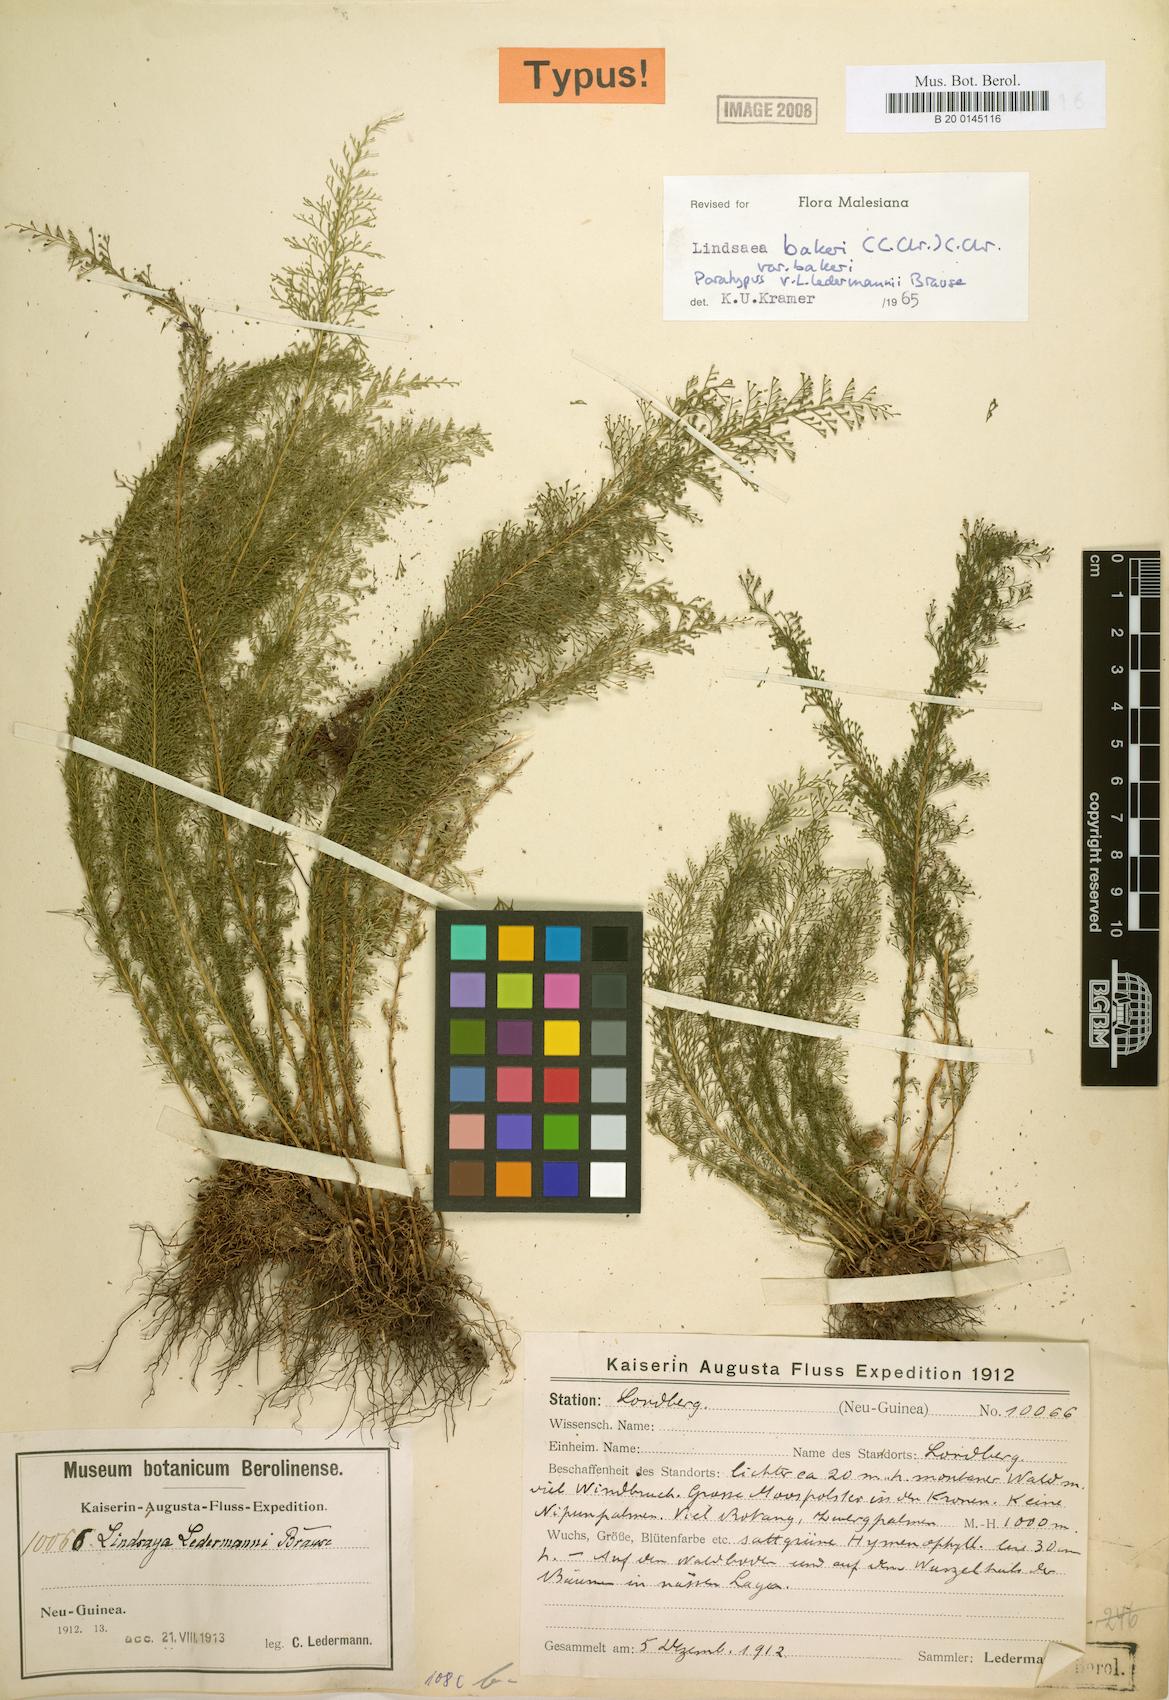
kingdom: Plantae
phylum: Tracheophyta
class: Polypodiopsida
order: Polypodiales
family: Lindsaeaceae
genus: Lindsaea
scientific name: Lindsaea bakeri
